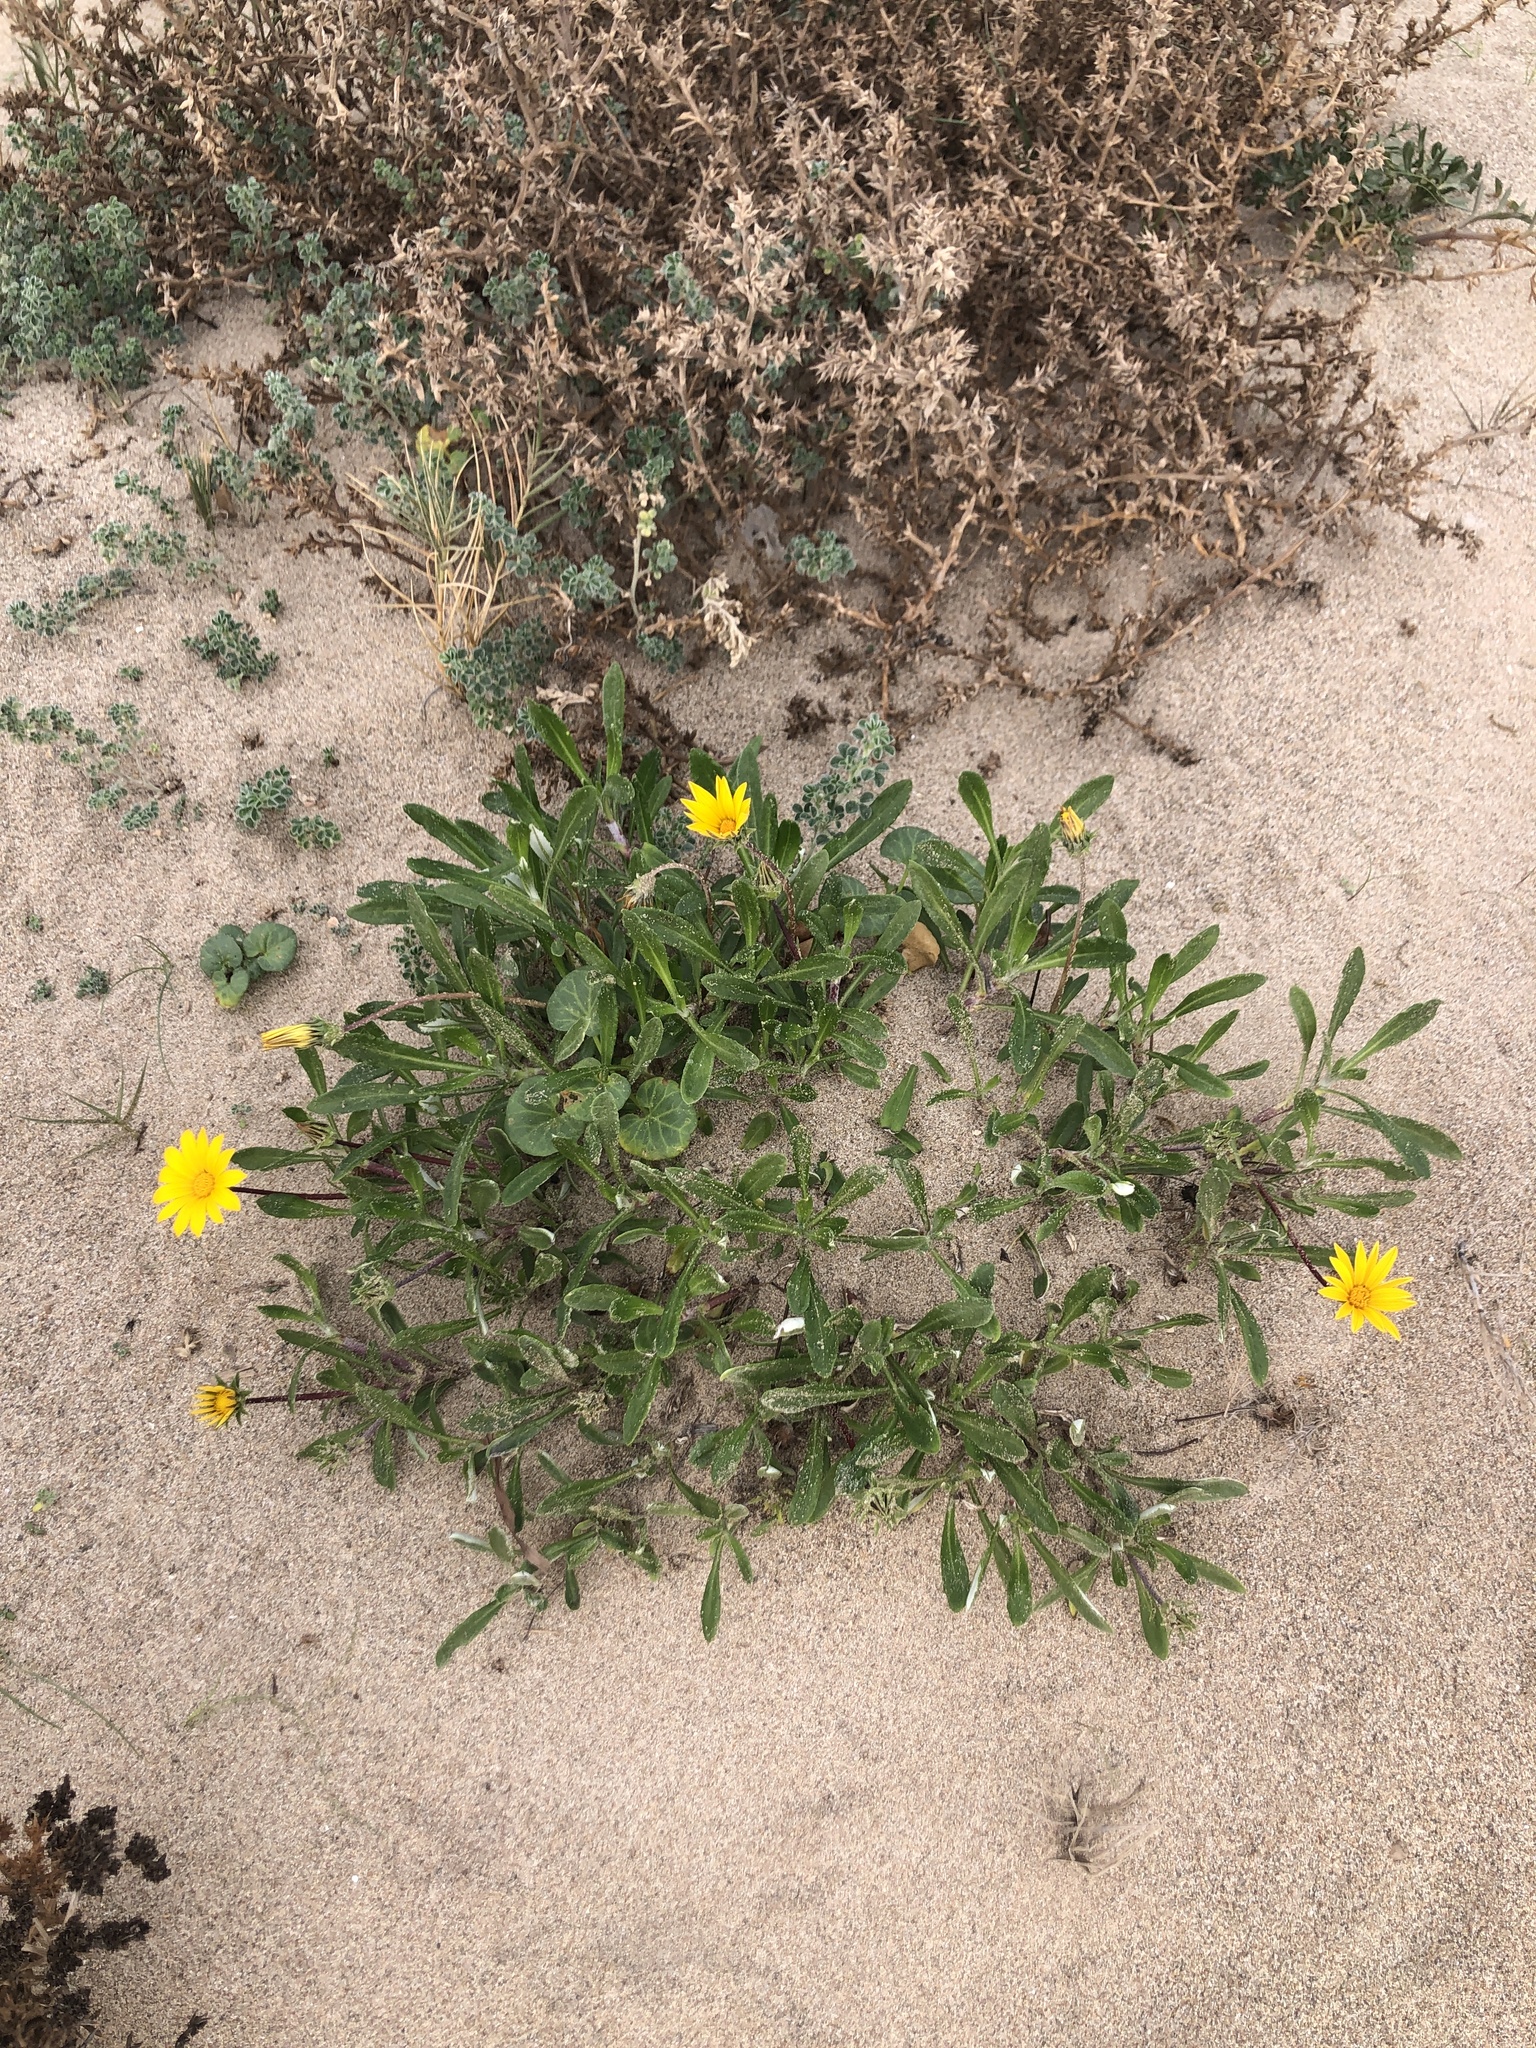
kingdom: Plantae
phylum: Tracheophyta
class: Magnoliopsida
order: Asterales
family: Asteraceae
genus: Gazania
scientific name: Gazania rigens
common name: Treasureflower
